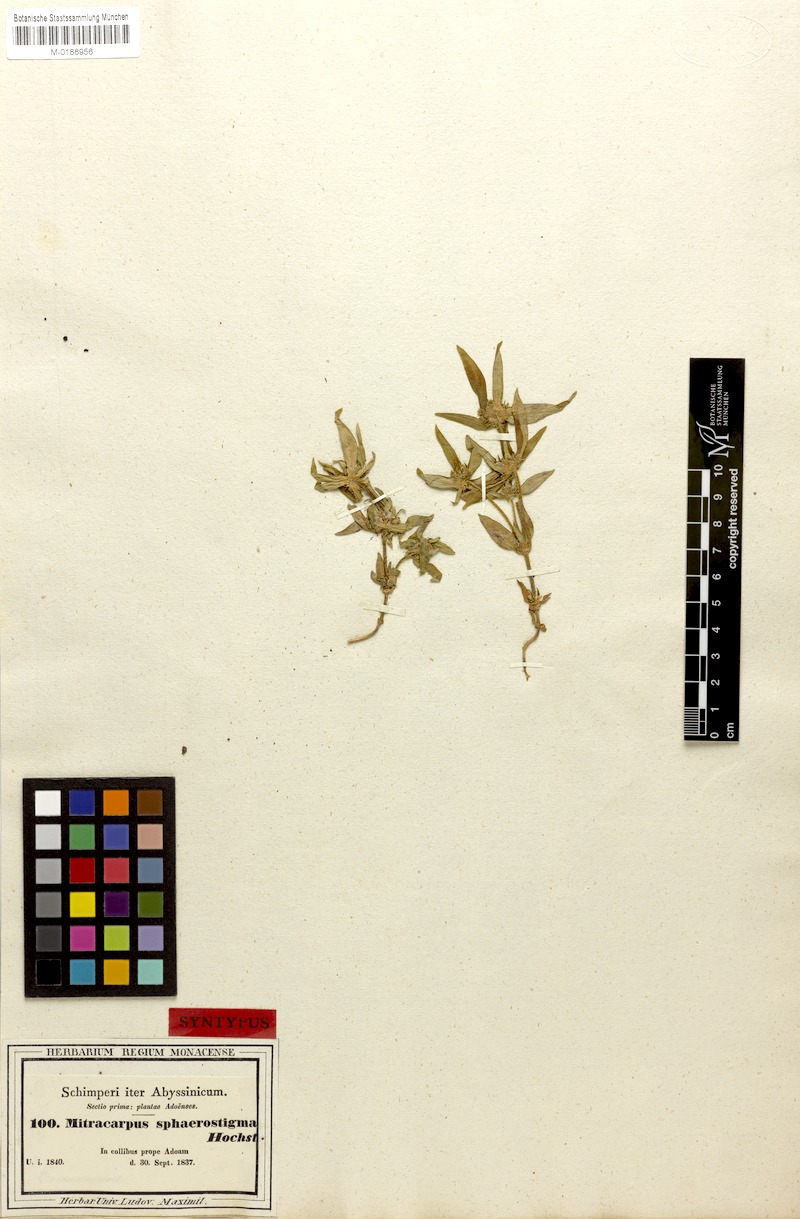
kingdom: Plantae
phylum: Tracheophyta
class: Magnoliopsida
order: Gentianales
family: Rubiaceae
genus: Spermacoce
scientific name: Spermacoce sphaerostigma
